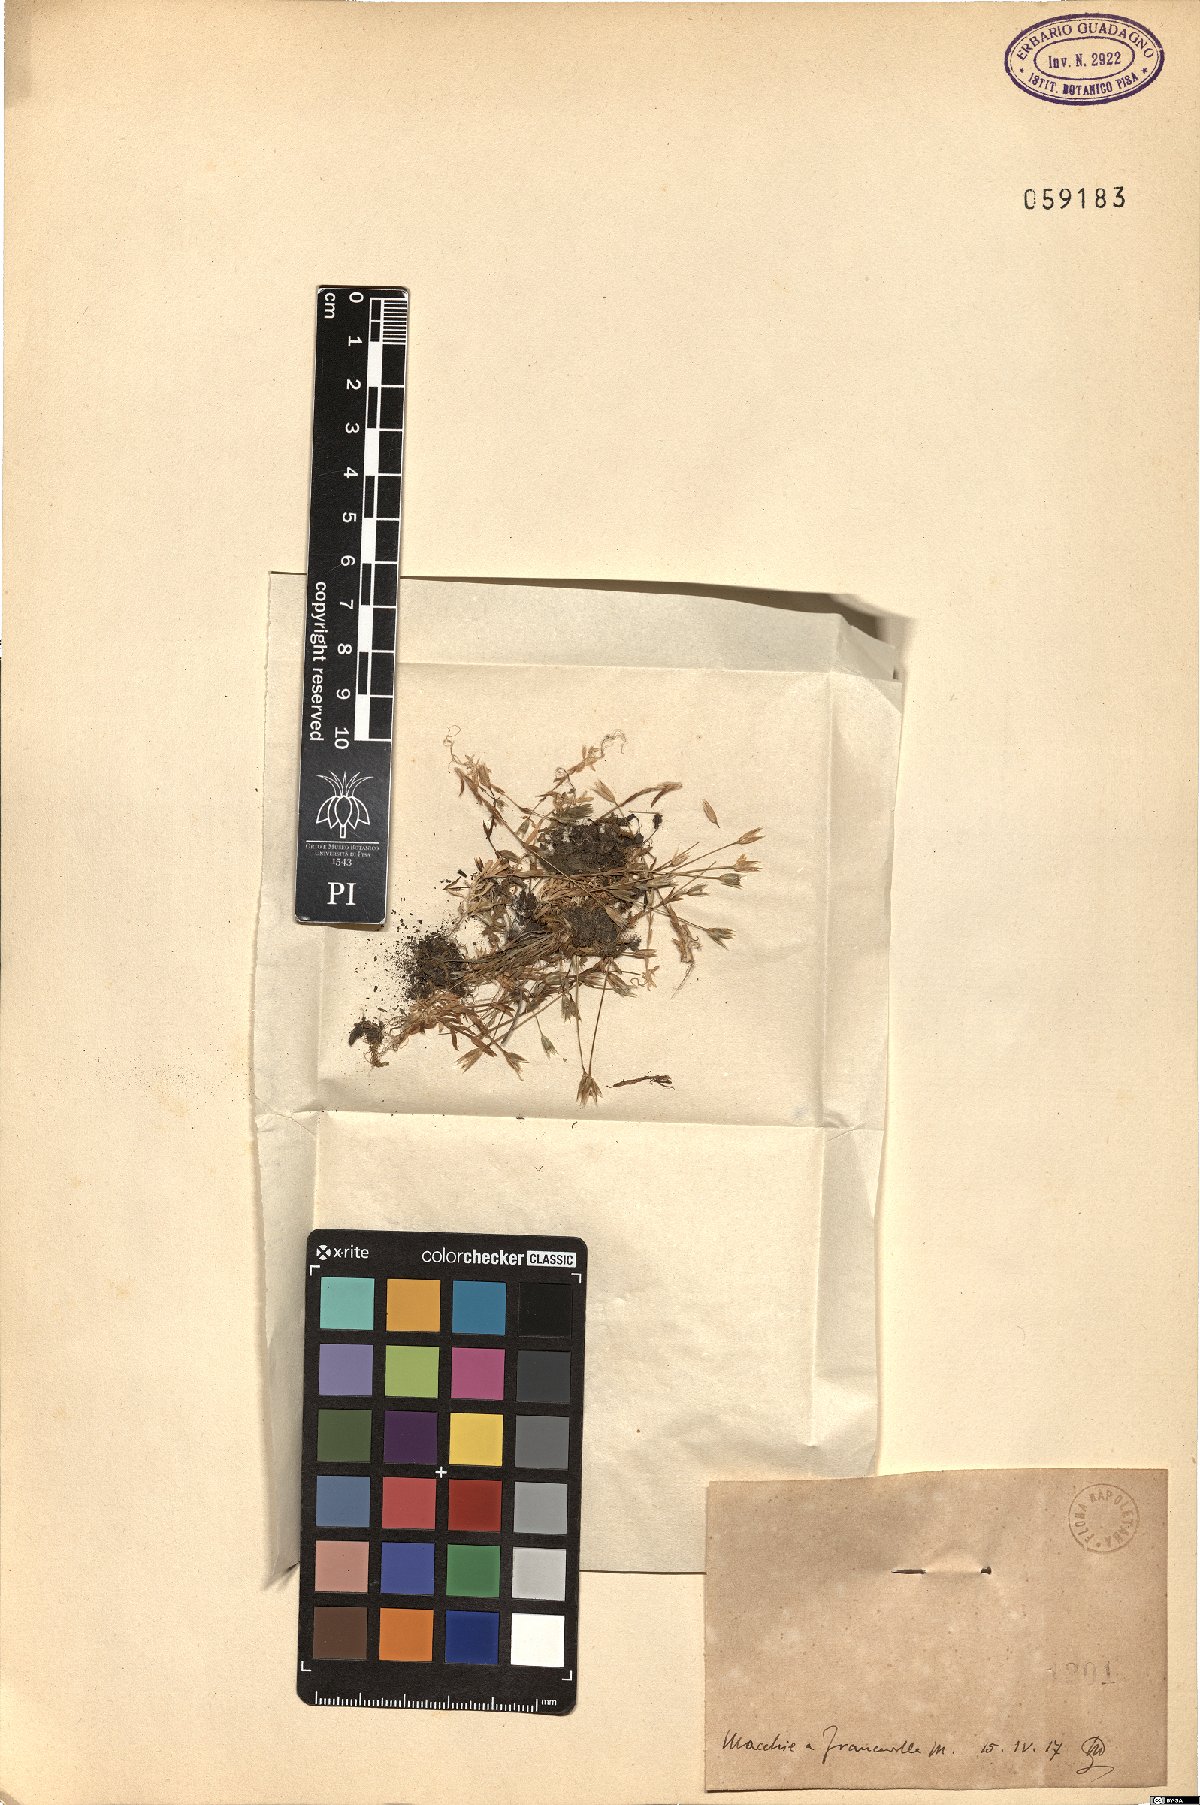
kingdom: Plantae
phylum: Tracheophyta
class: Magnoliopsida
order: Caryophyllales
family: Caryophyllaceae
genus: Moenchia
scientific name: Moenchia erecta
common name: Upright chickweed
